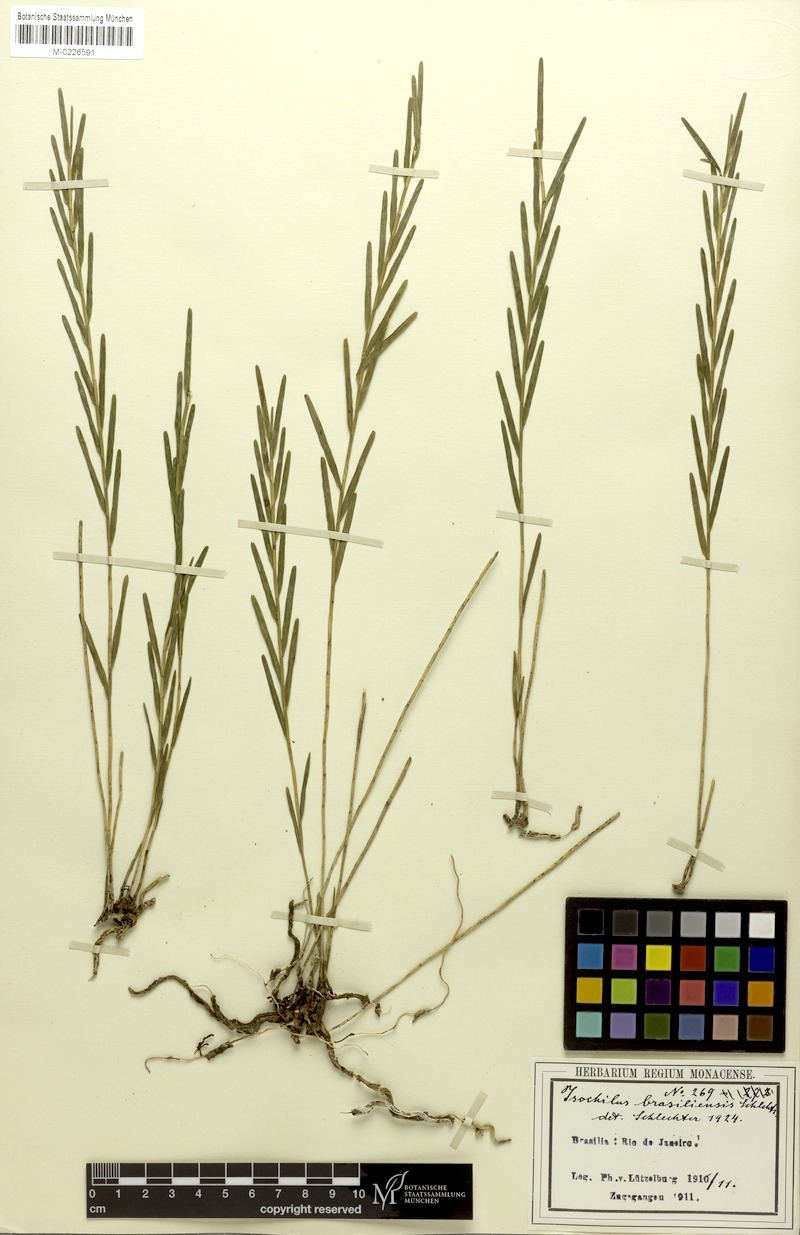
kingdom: Plantae
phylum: Tracheophyta
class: Liliopsida
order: Asparagales
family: Orchidaceae
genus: Isochilus
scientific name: Isochilus linearis
